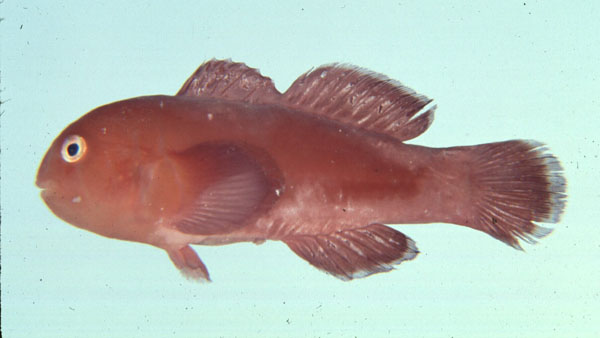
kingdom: Animalia
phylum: Chordata
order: Perciformes
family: Gobiidae
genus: Gobiodon
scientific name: Gobiodon rivulatus
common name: Rippled coralgoby
